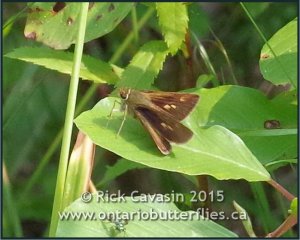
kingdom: Animalia
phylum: Arthropoda
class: Insecta
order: Lepidoptera
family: Hesperiidae
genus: Polites
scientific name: Polites egeremet
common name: Northern Broken-Dash
